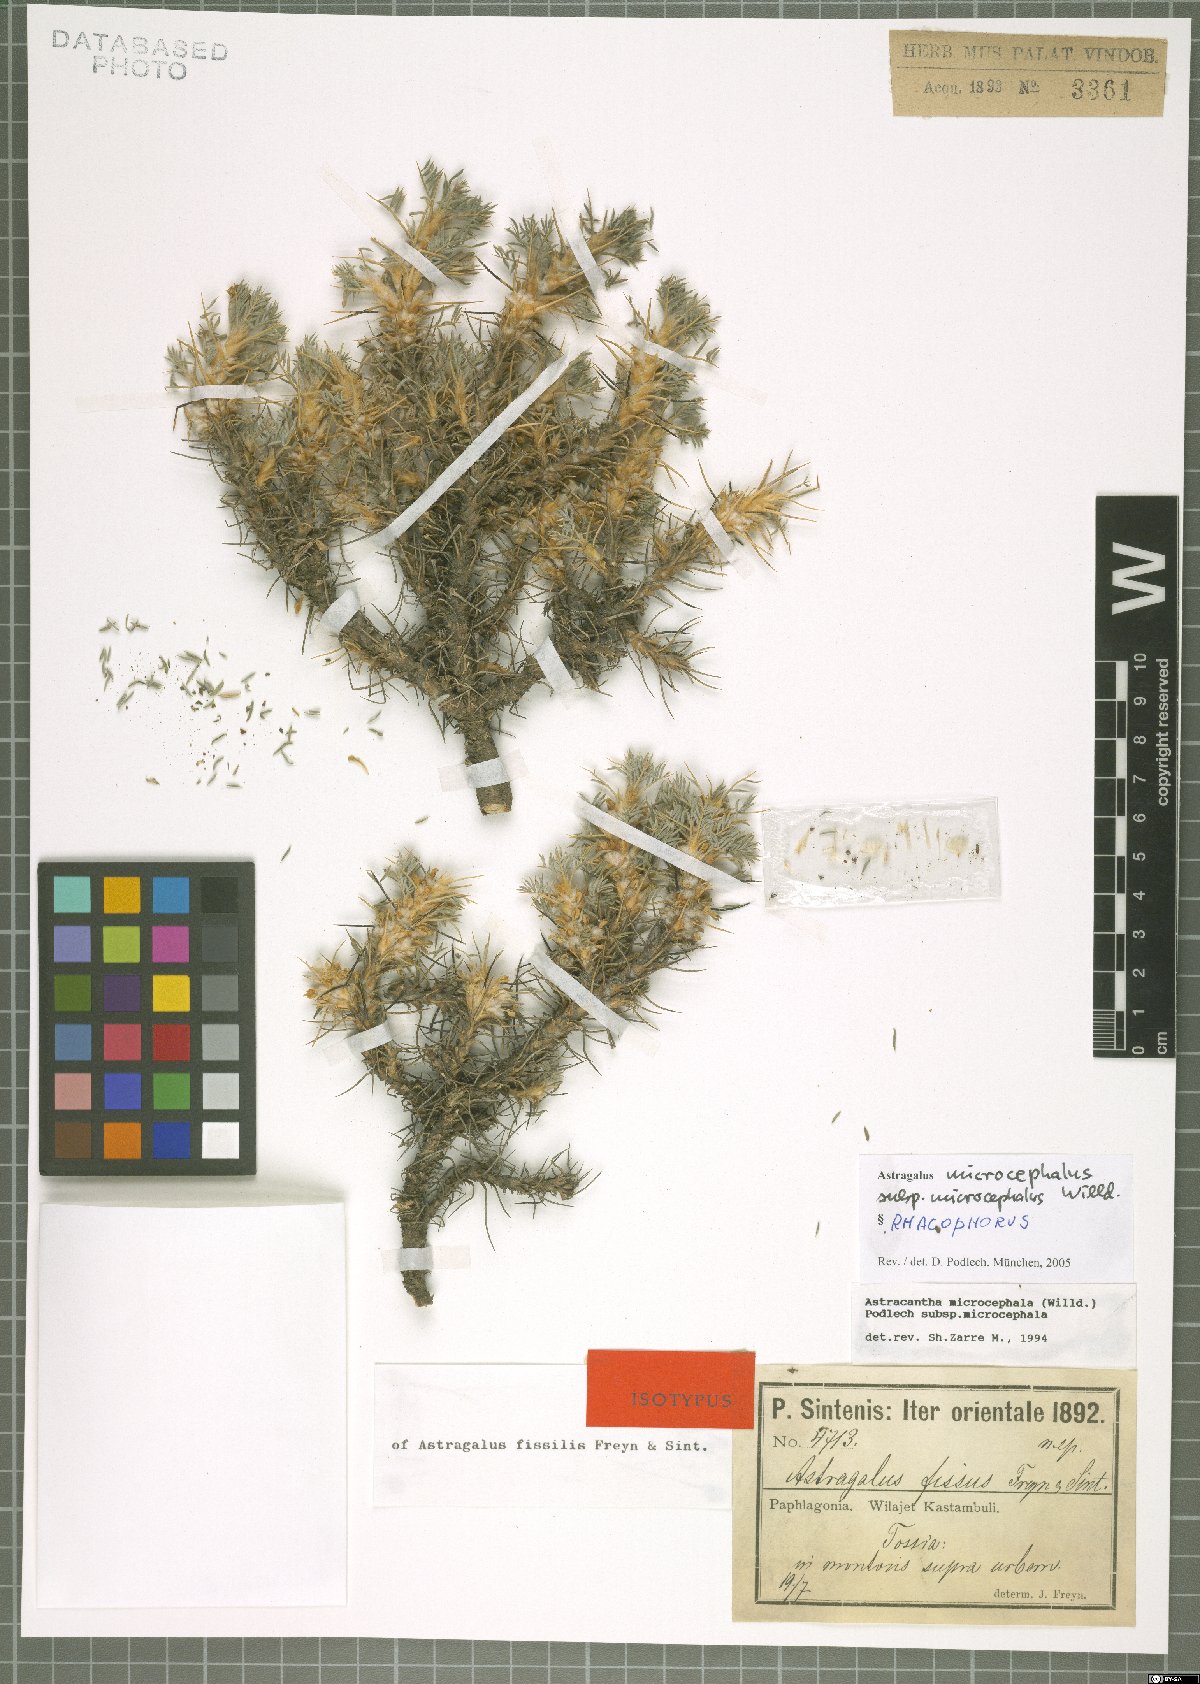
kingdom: Plantae
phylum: Tracheophyta
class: Magnoliopsida
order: Fabales
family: Fabaceae
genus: Astragalus
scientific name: Astragalus microcephalus
